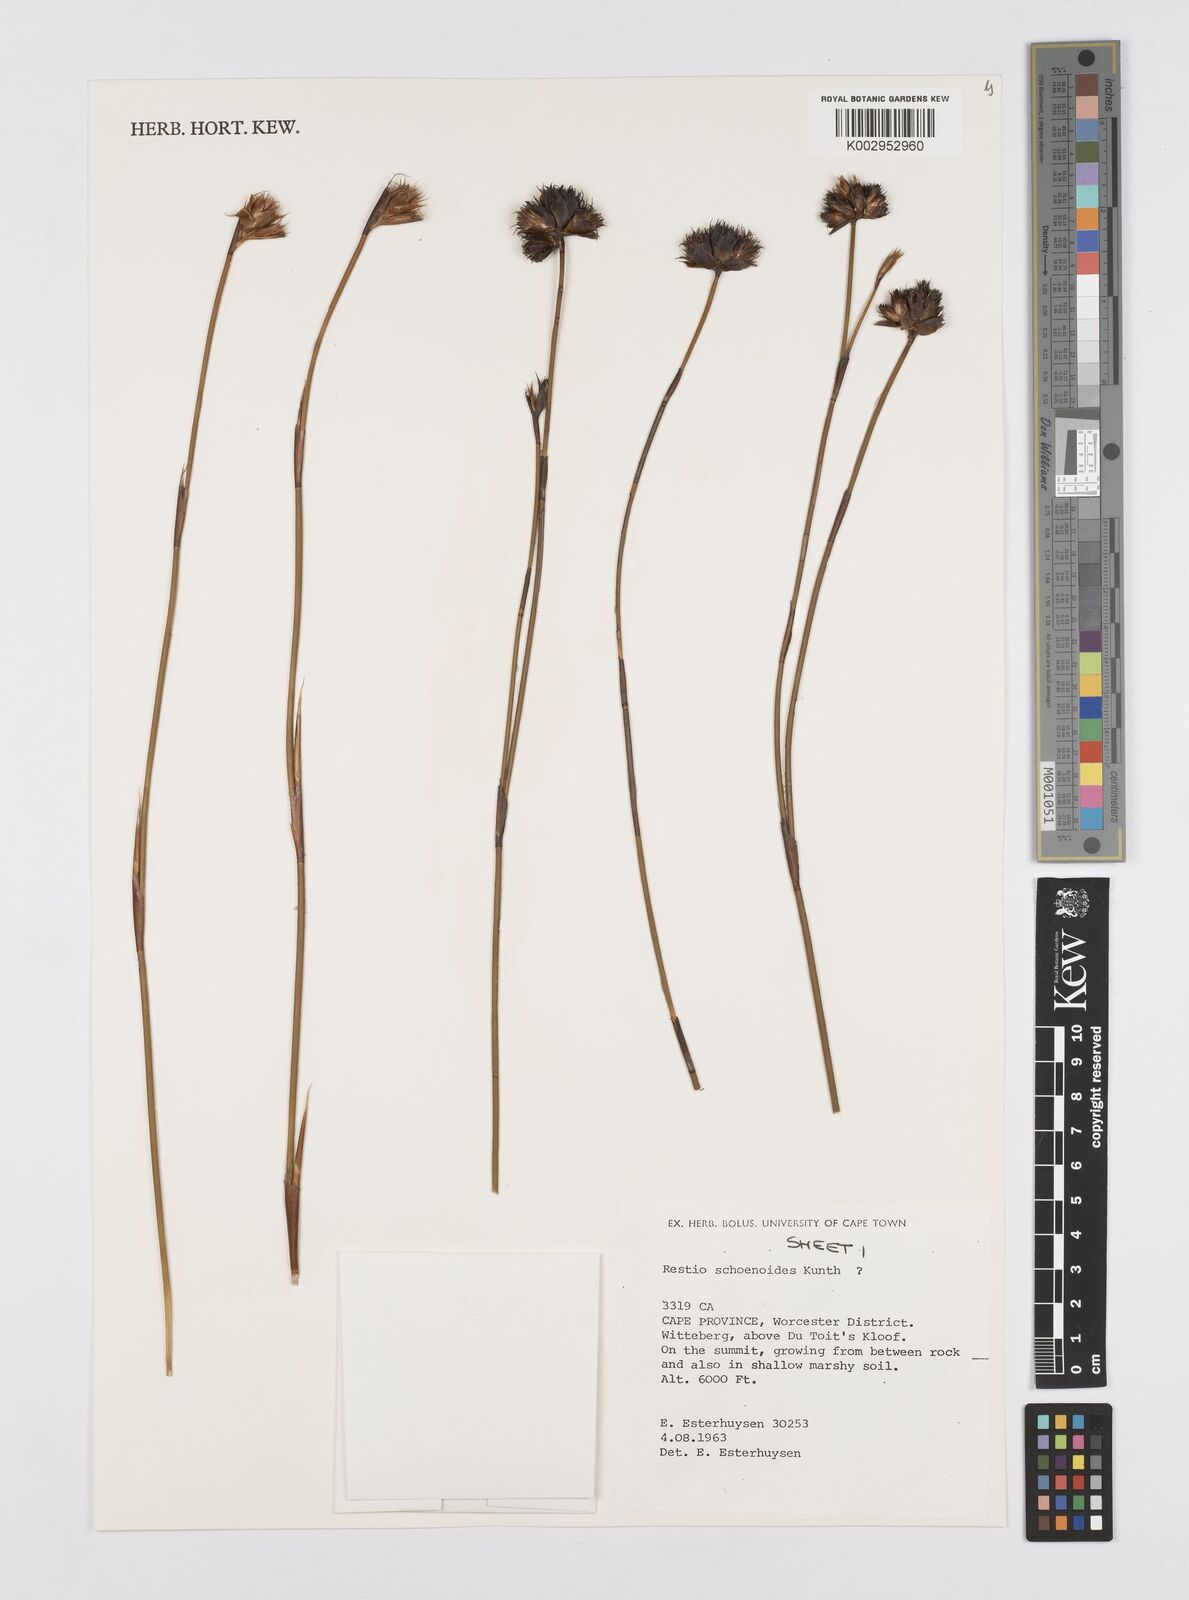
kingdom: Plantae
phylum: Tracheophyta
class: Liliopsida
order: Poales
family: Restionaceae
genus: Restio
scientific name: Restio schoenoides
